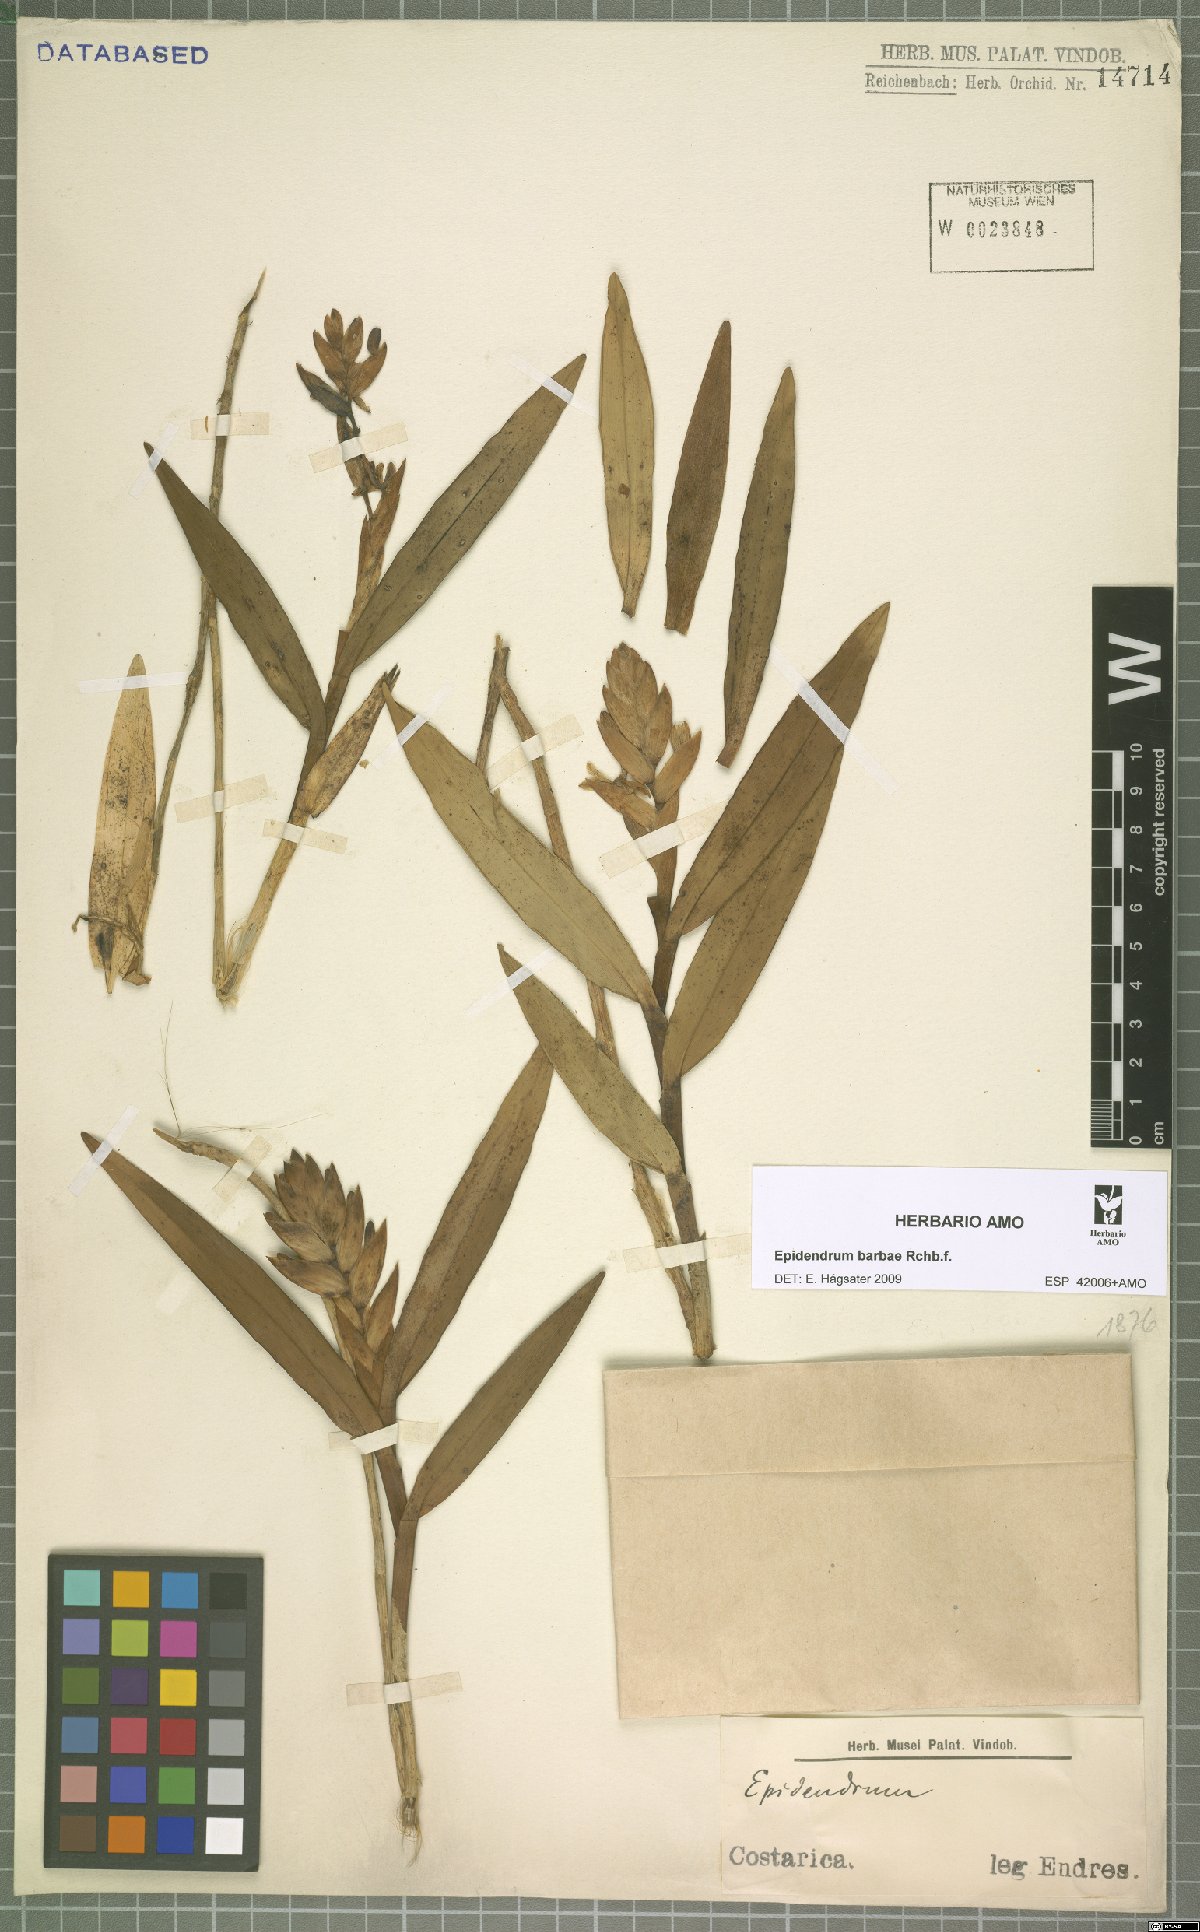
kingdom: Plantae
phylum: Tracheophyta
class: Liliopsida
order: Asparagales
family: Orchidaceae
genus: Epidendrum
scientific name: Epidendrum barbae
